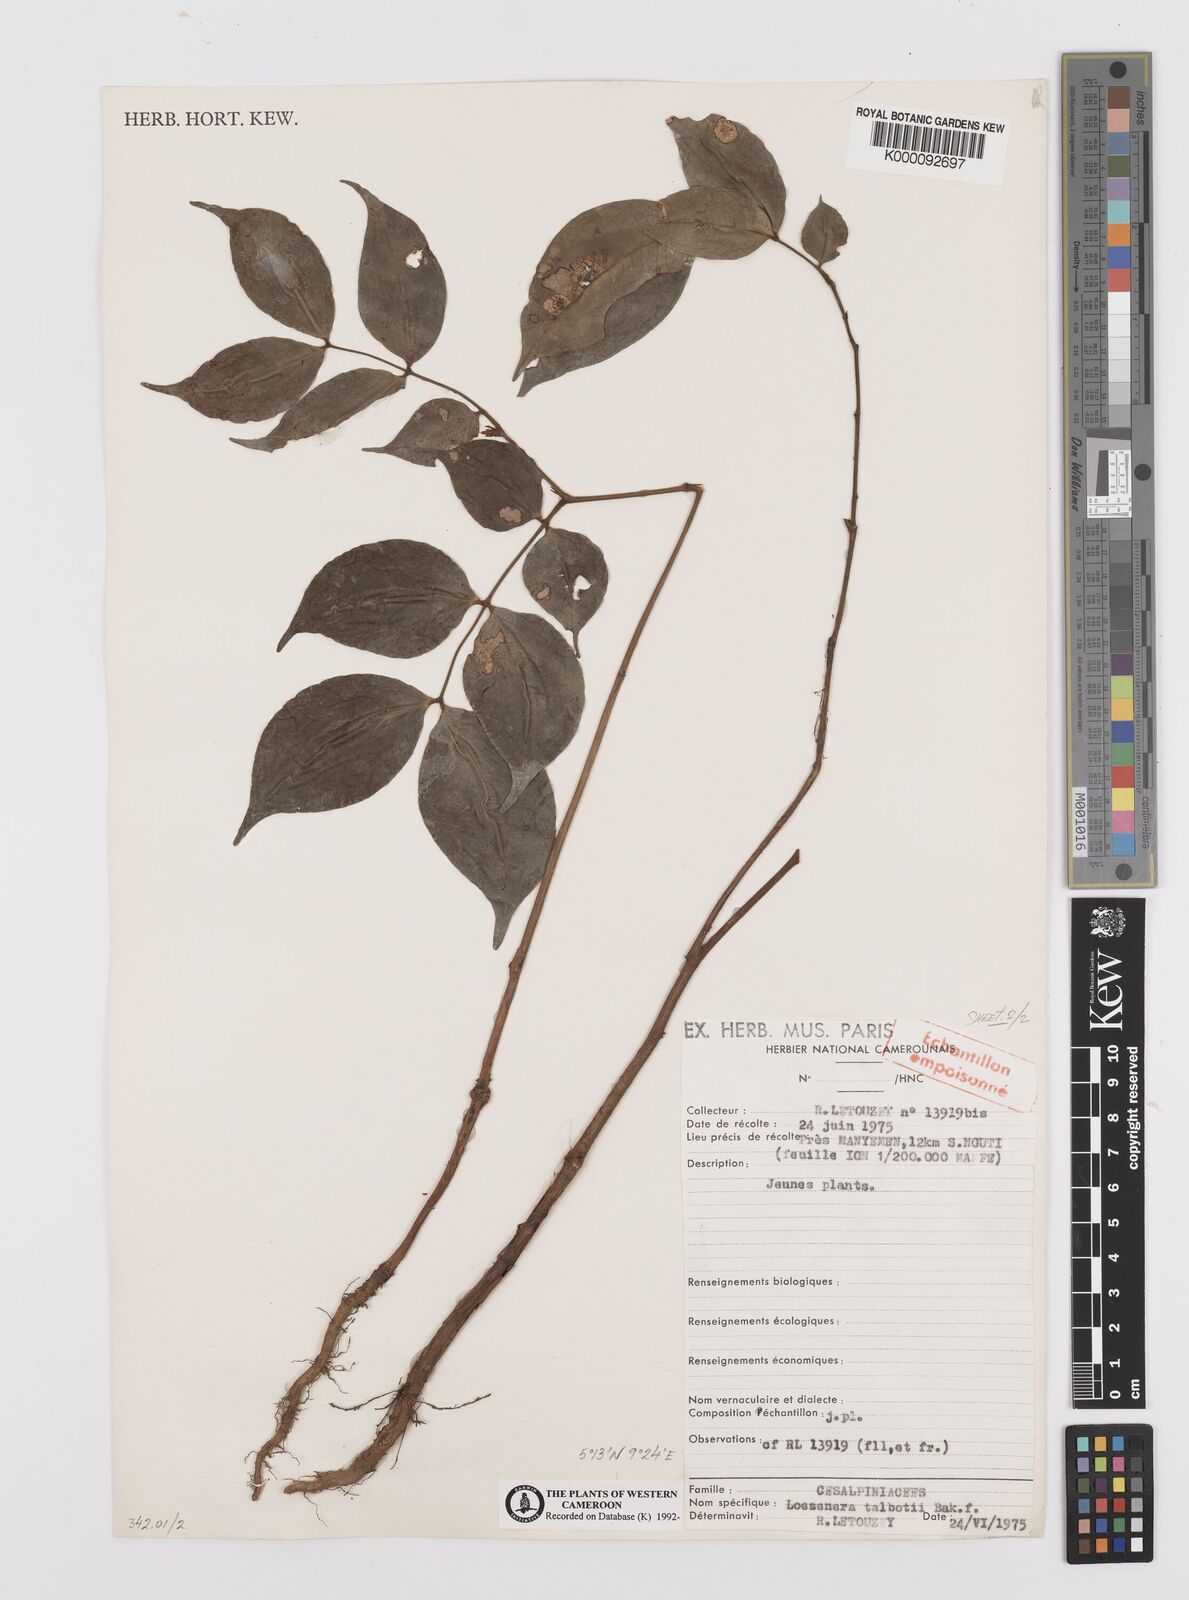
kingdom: Plantae
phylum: Tracheophyta
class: Magnoliopsida
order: Fabales
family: Fabaceae
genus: Loesenera
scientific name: Loesenera talbotii
